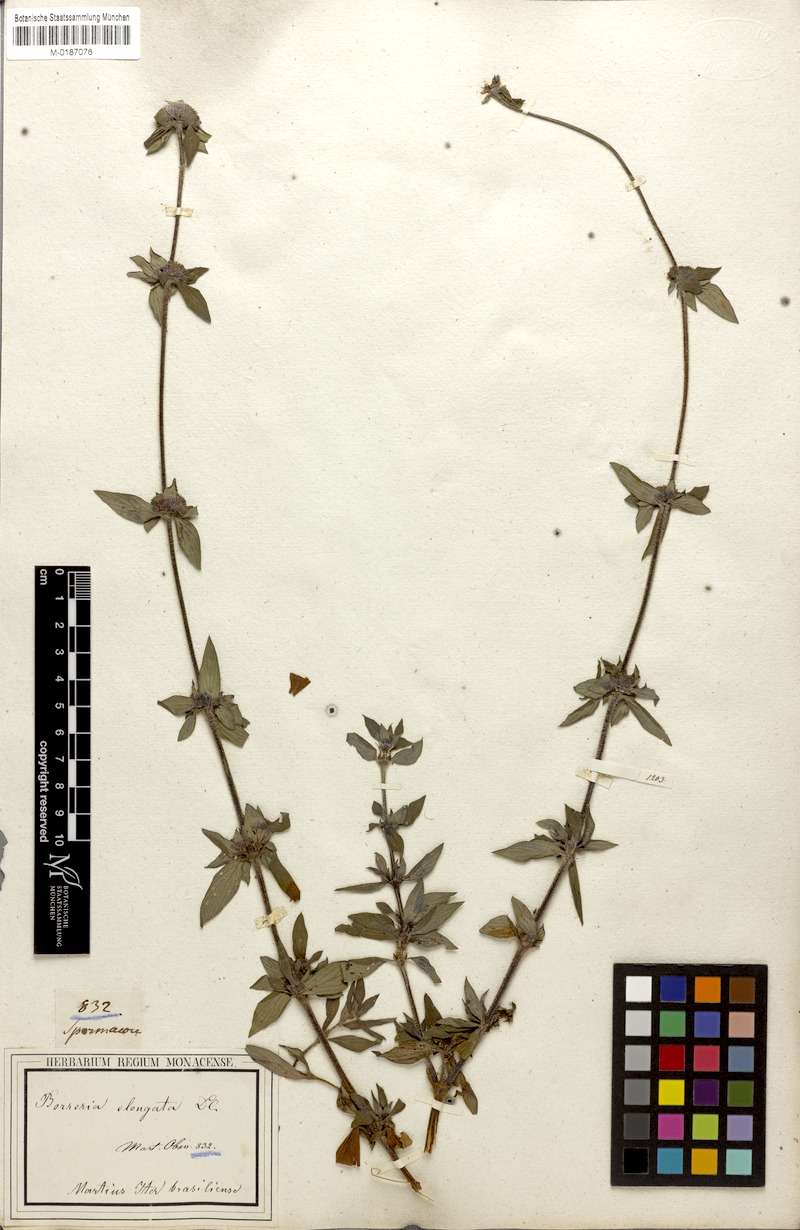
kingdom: Plantae
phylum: Tracheophyta
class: Magnoliopsida
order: Gentianales
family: Rubiaceae
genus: Spermacoce
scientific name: Spermacoce capitata
